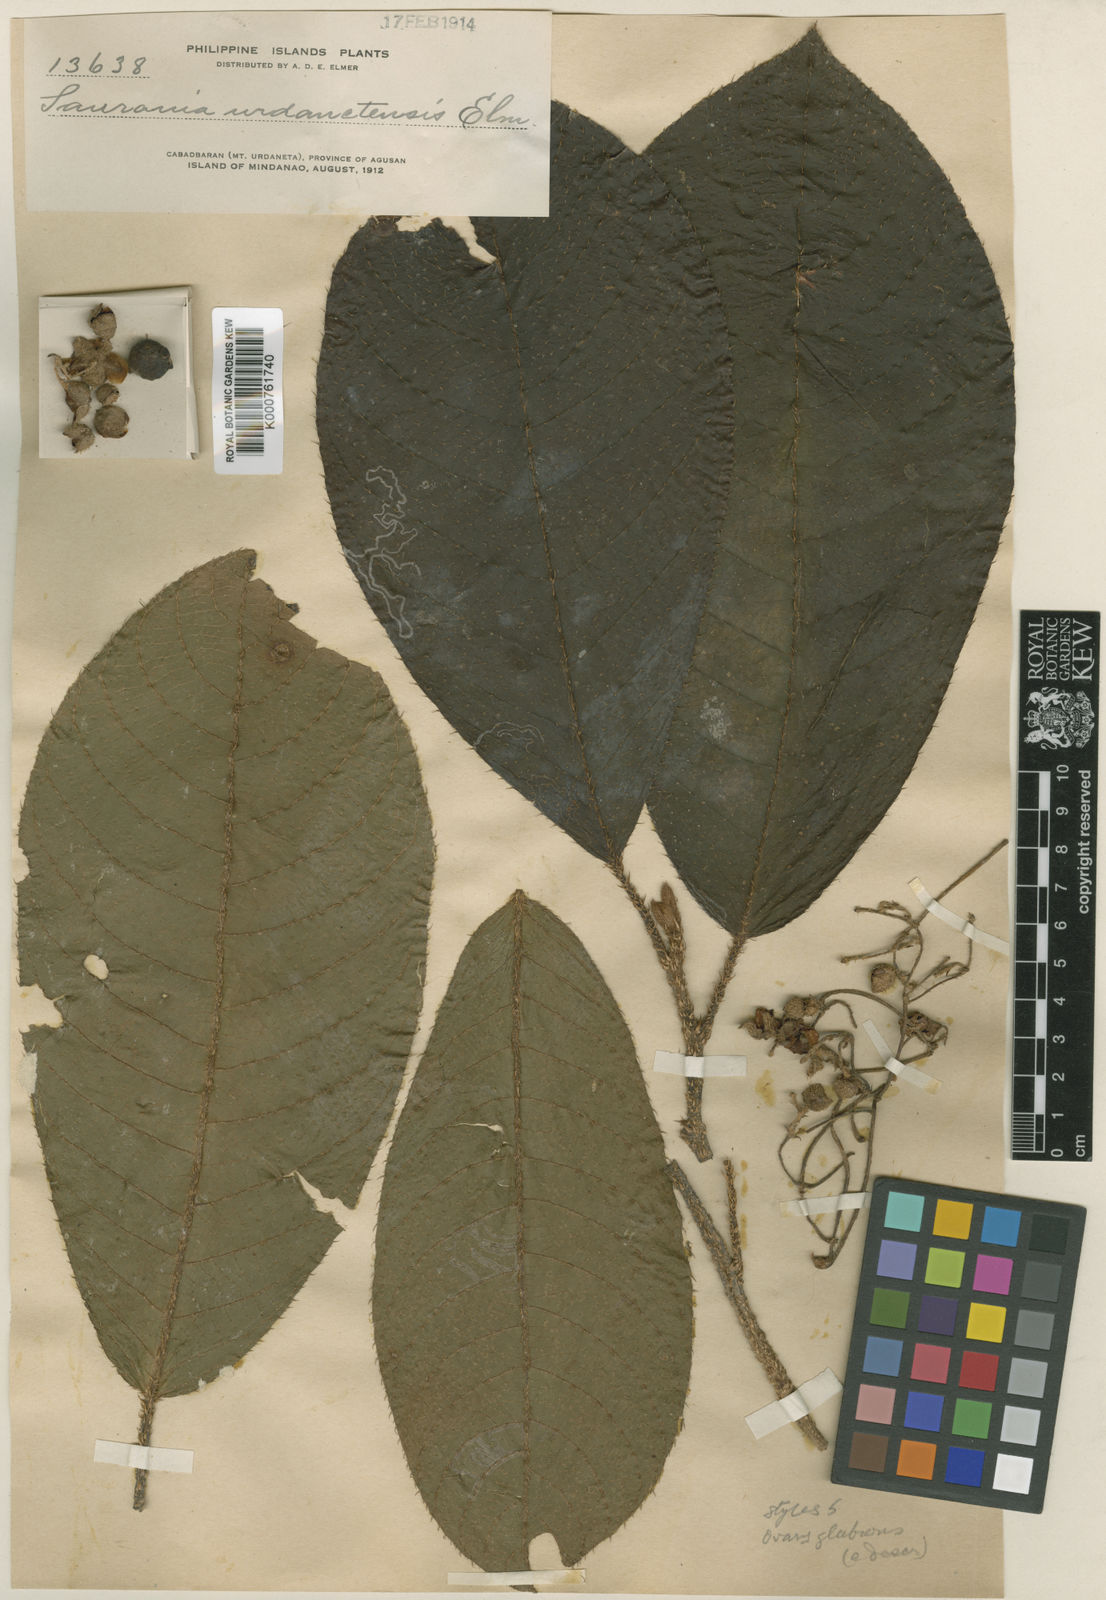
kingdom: Plantae
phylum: Tracheophyta
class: Magnoliopsida
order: Ericales
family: Actinidiaceae
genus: Saurauia
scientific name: Saurauia urdanetensis
